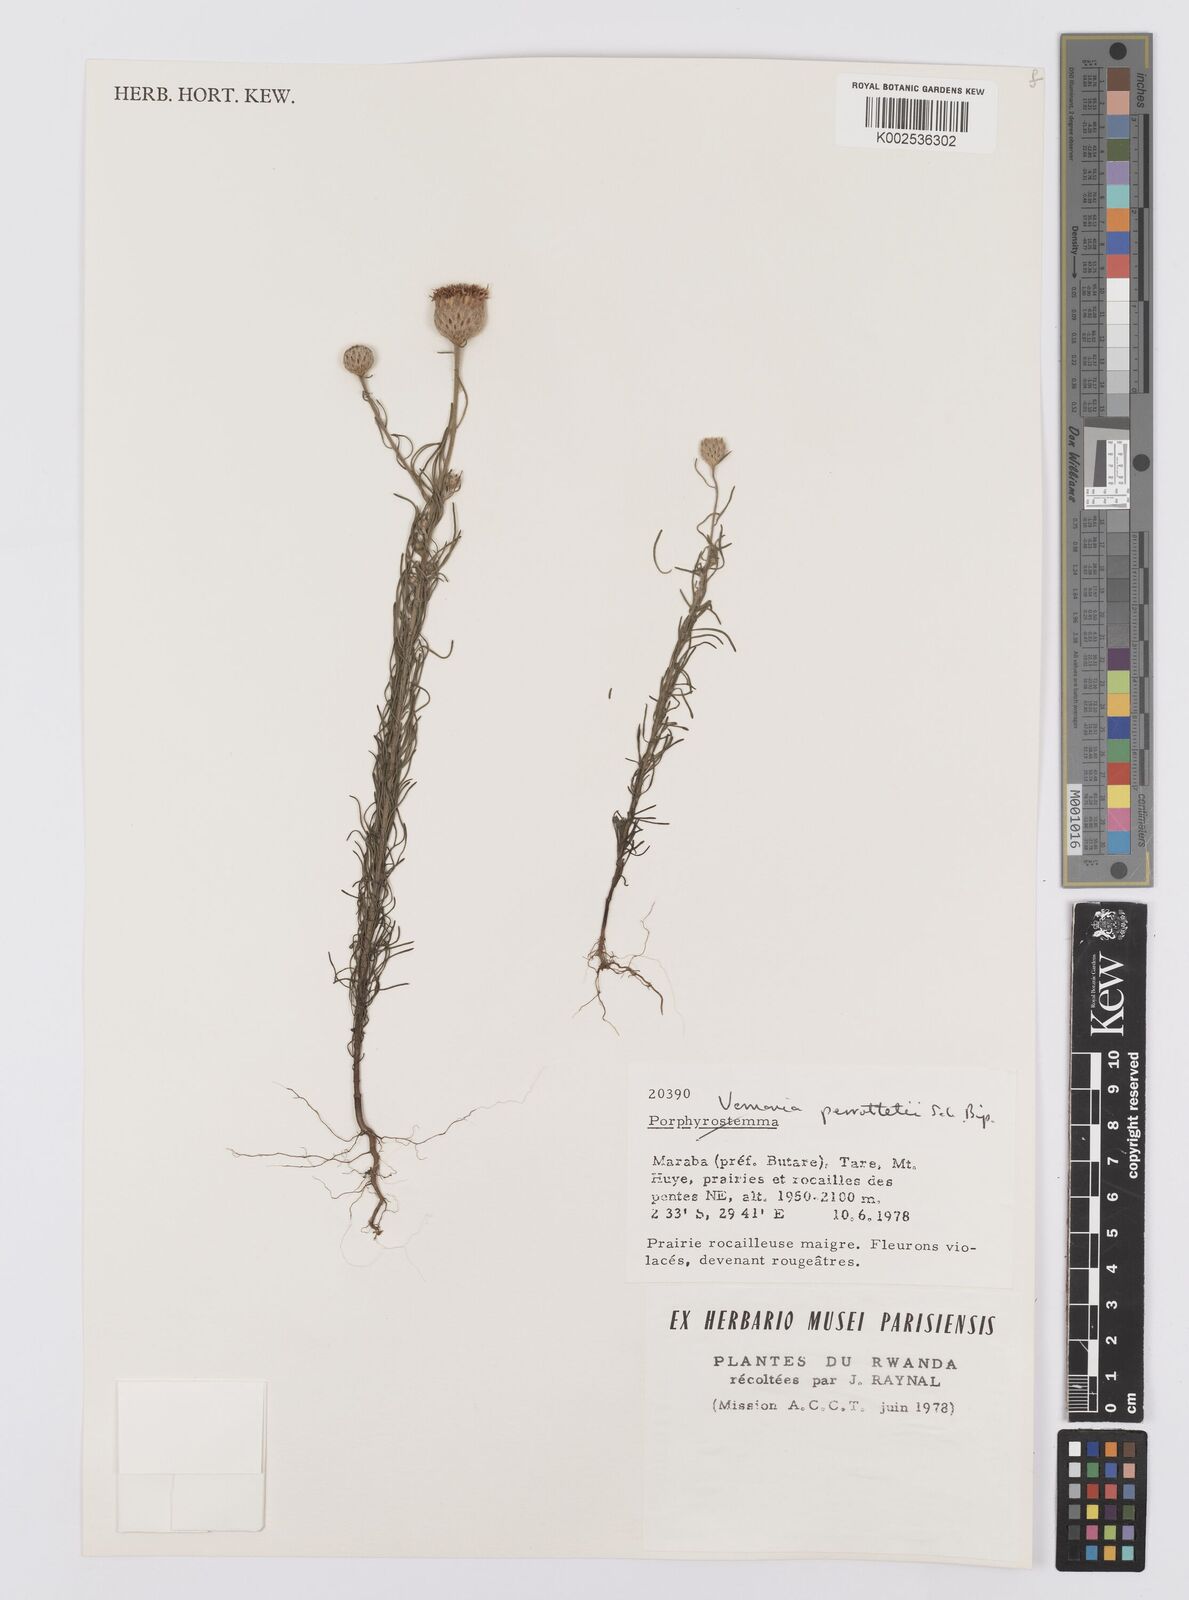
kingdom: Plantae
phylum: Tracheophyta
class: Magnoliopsida
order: Asterales
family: Asteraceae
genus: Crystallopollen
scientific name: Crystallopollen serratuloides
